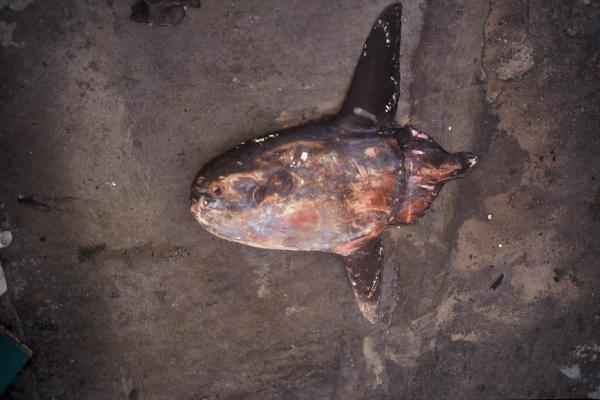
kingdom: Animalia
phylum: Chordata
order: Tetraodontiformes
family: Molidae
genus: Masturus
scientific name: Masturus lanceolatus
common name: Sharpfin sunfish
